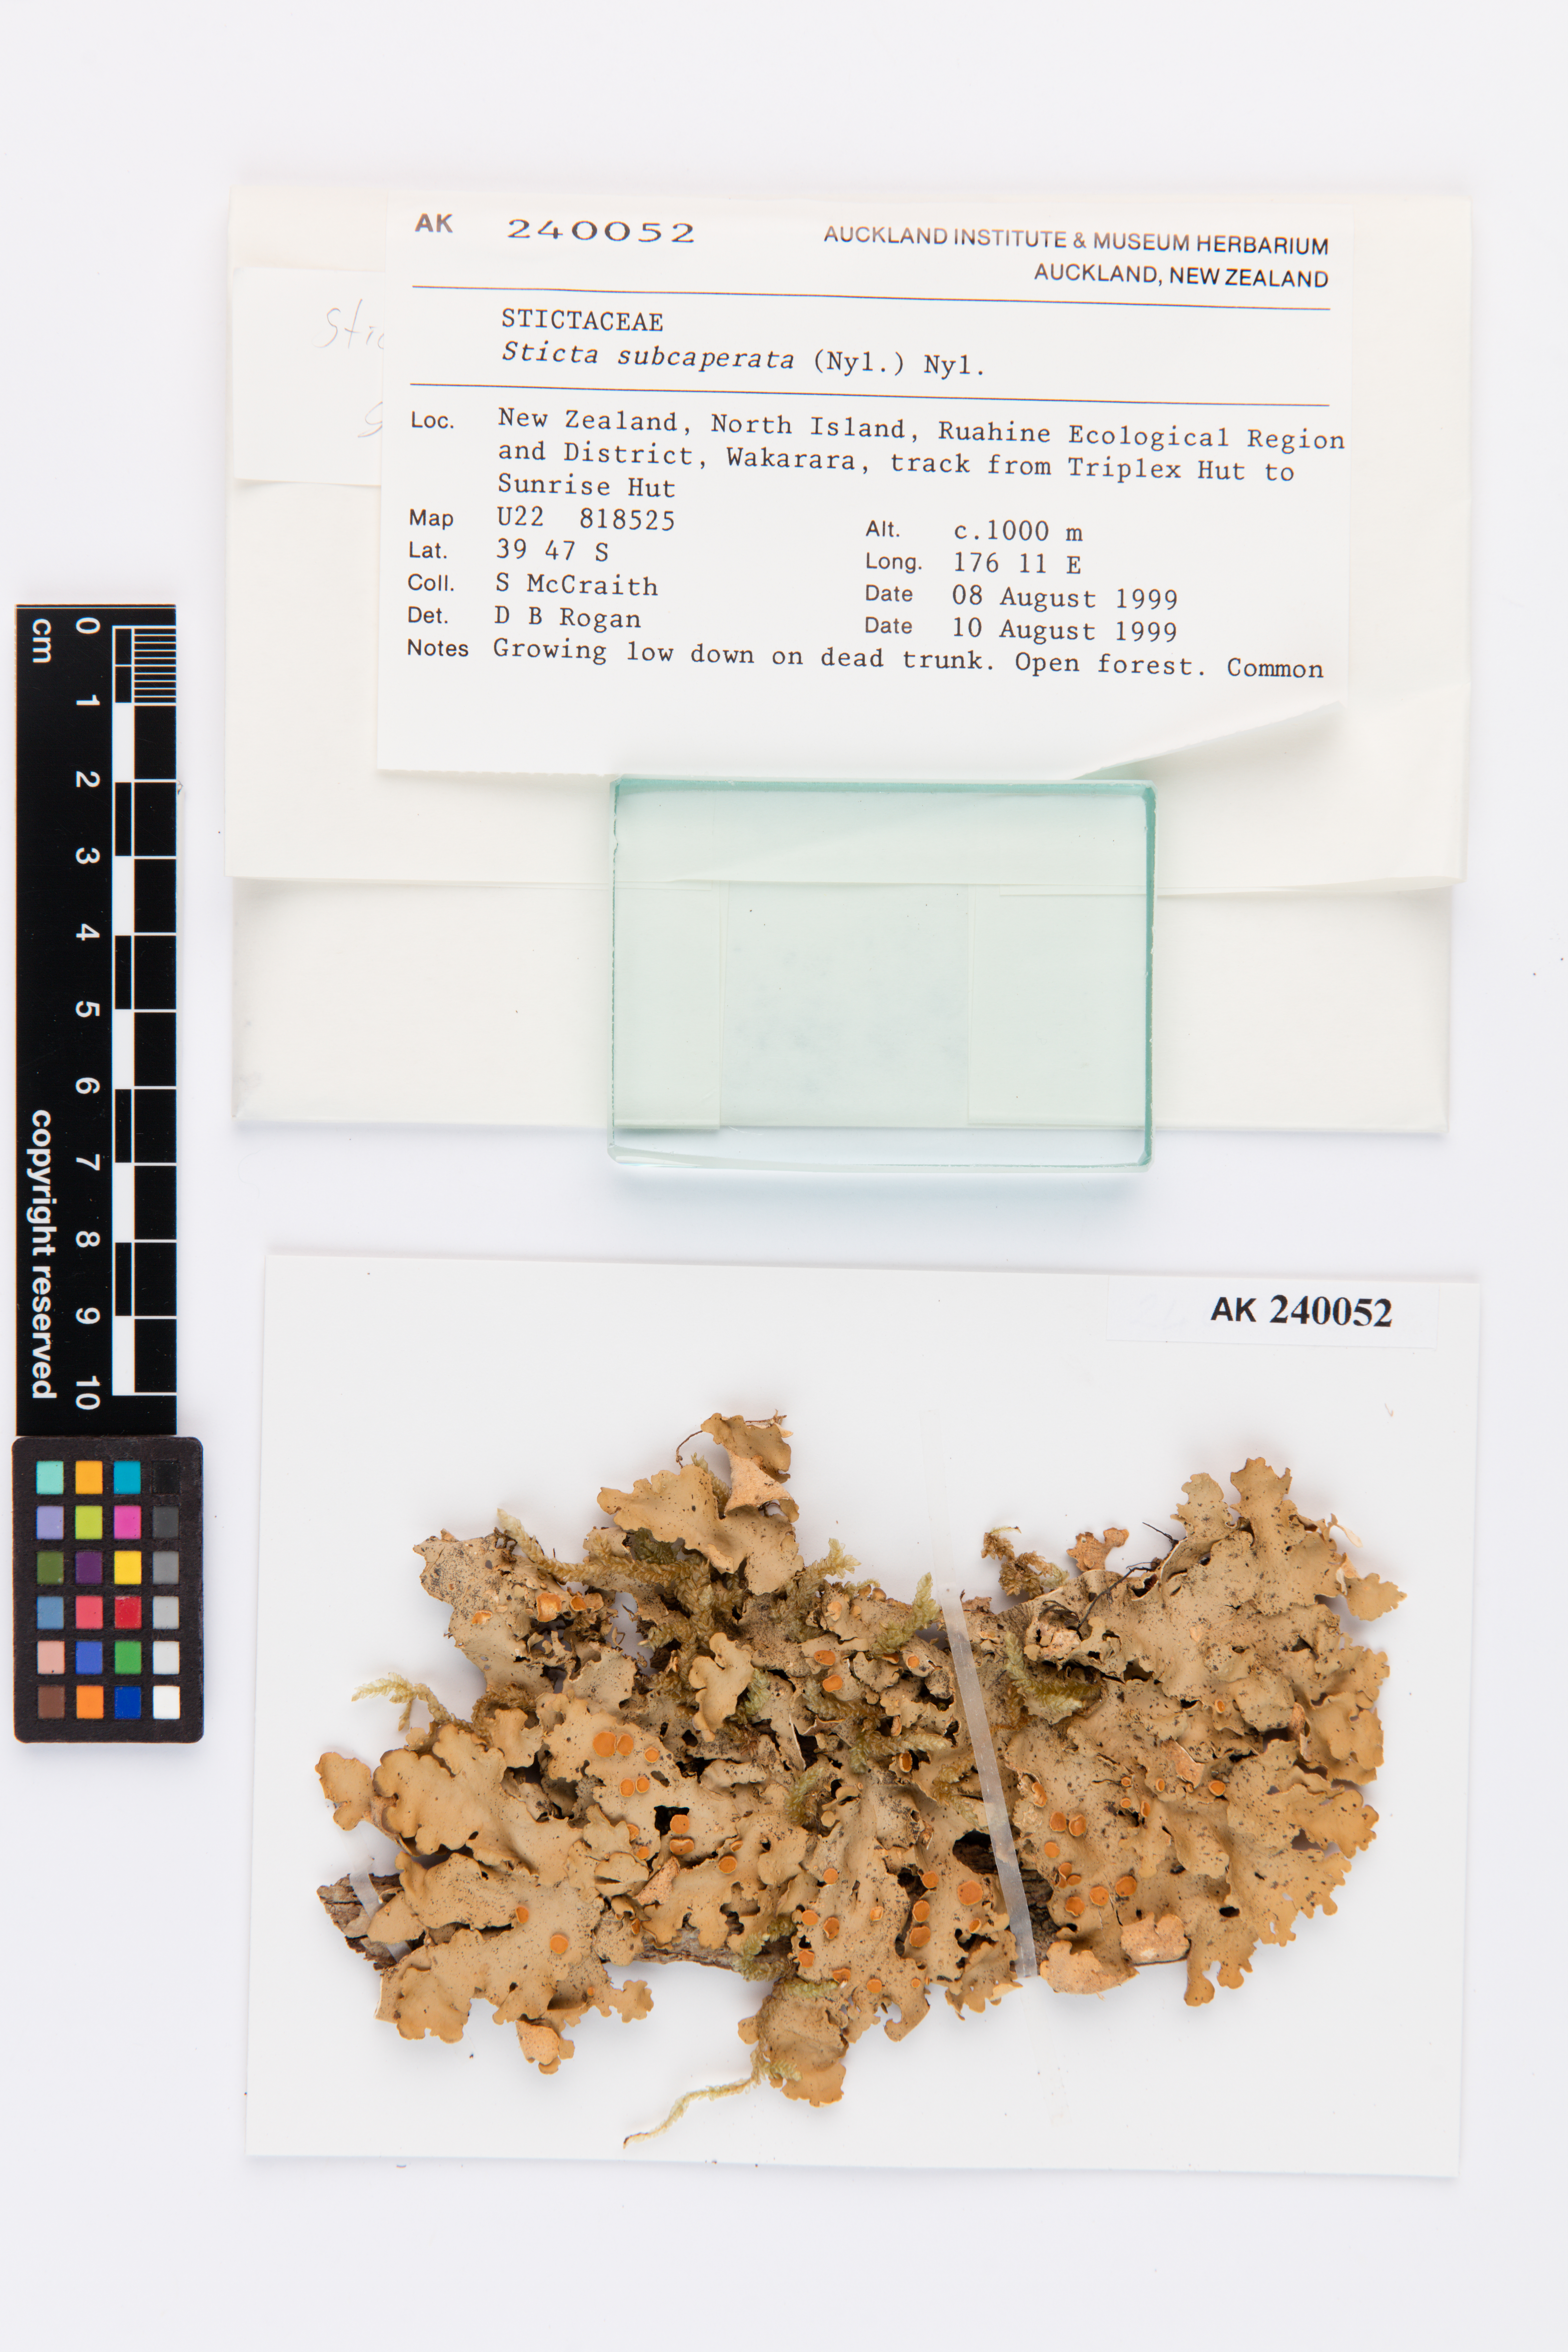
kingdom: Fungi
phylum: Ascomycota
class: Lecanoromycetes
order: Peltigerales
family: Lobariaceae
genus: Sticta
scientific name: Sticta subcaperata
